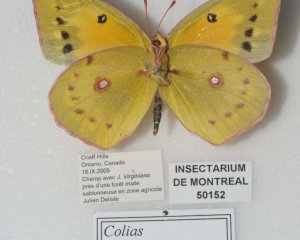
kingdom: Animalia
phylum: Arthropoda
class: Insecta
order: Lepidoptera
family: Pieridae
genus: Colias
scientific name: Colias eurytheme
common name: Orange Sulphur
